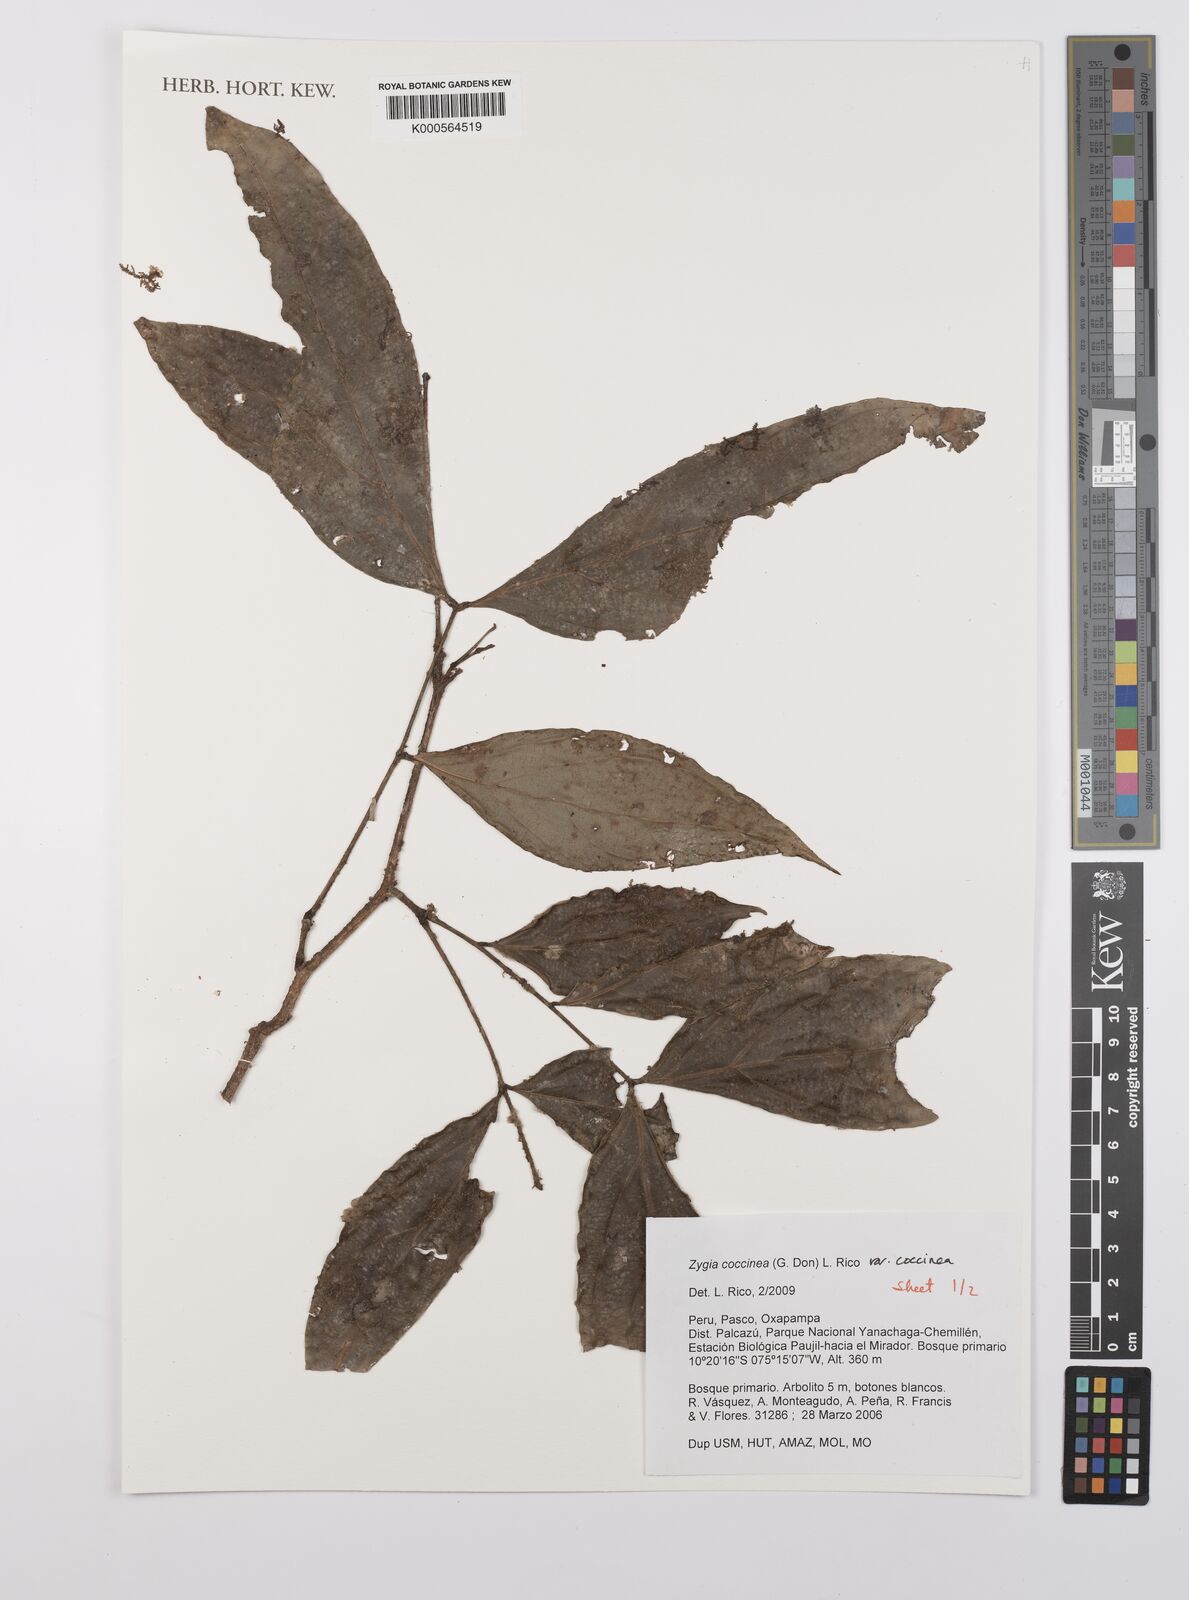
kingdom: Plantae
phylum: Tracheophyta
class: Magnoliopsida
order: Fabales
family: Fabaceae
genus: Zygia
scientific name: Zygia coccinea
